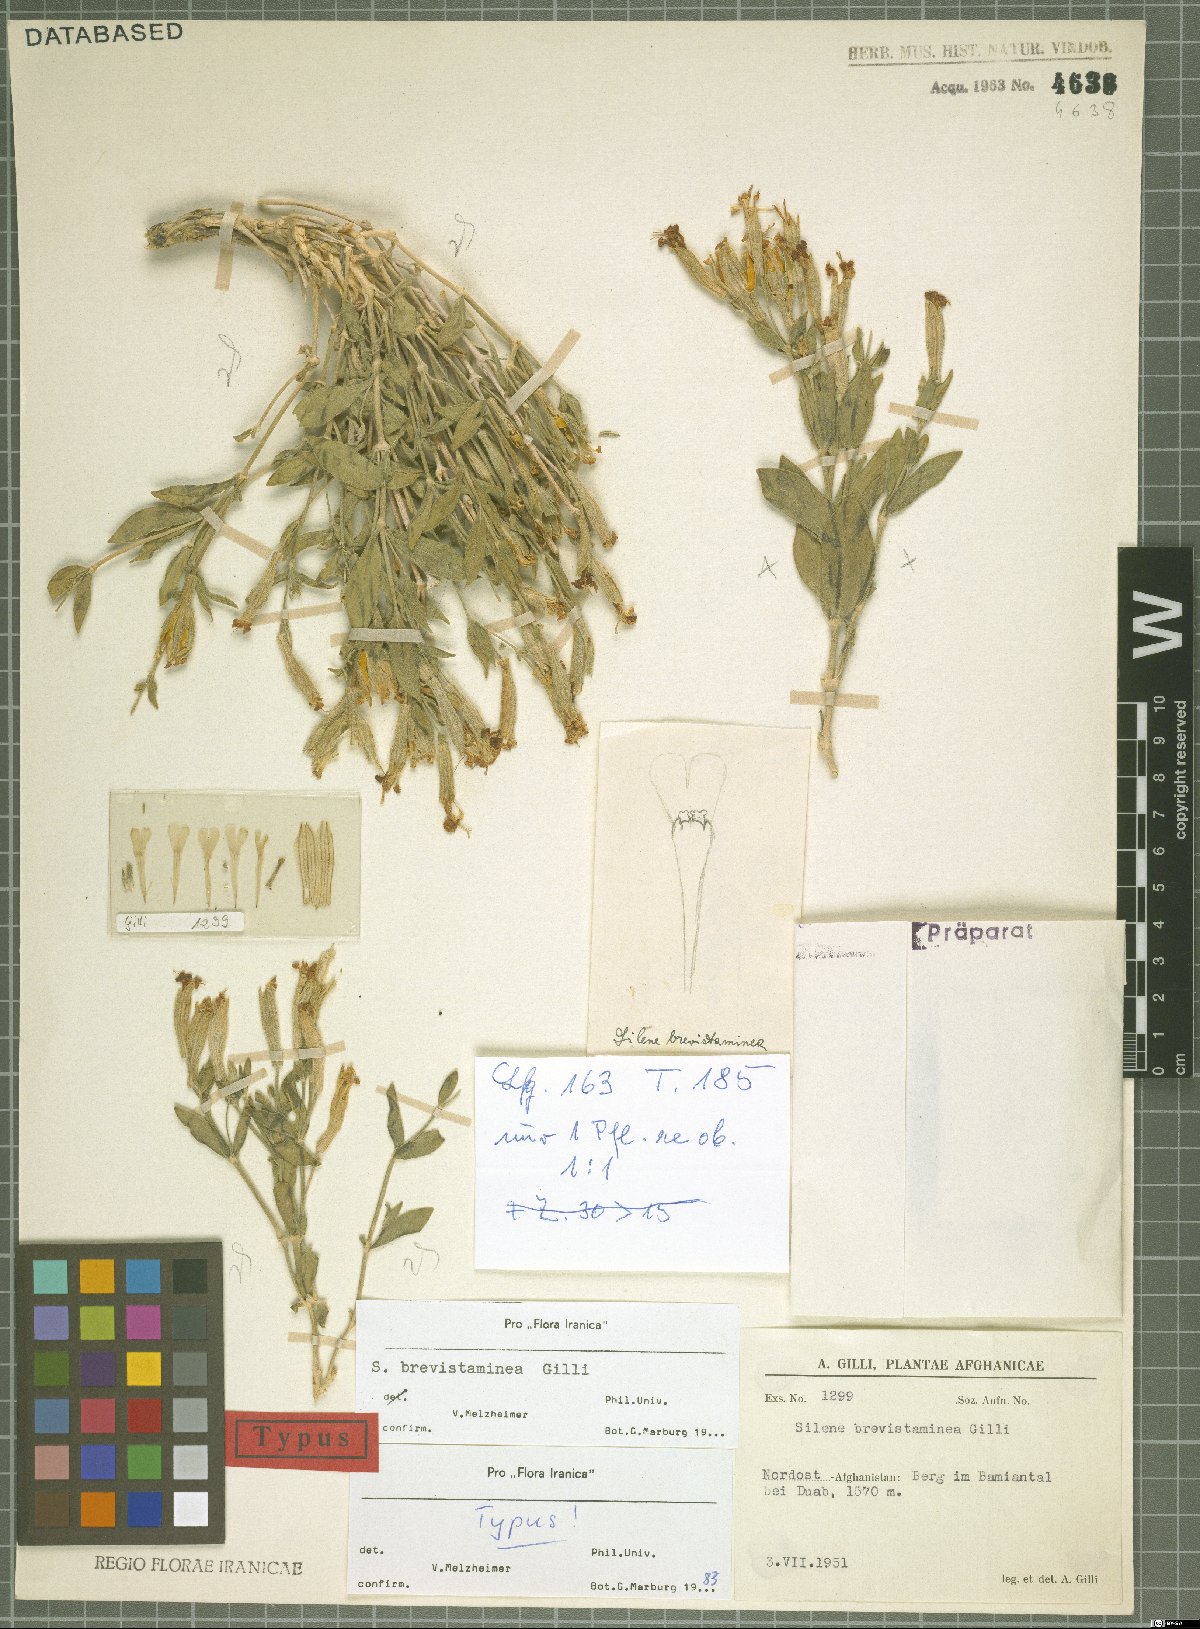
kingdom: Plantae
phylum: Tracheophyta
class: Magnoliopsida
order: Caryophyllales
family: Caryophyllaceae
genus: Silene
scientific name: Silene brevistaminea
